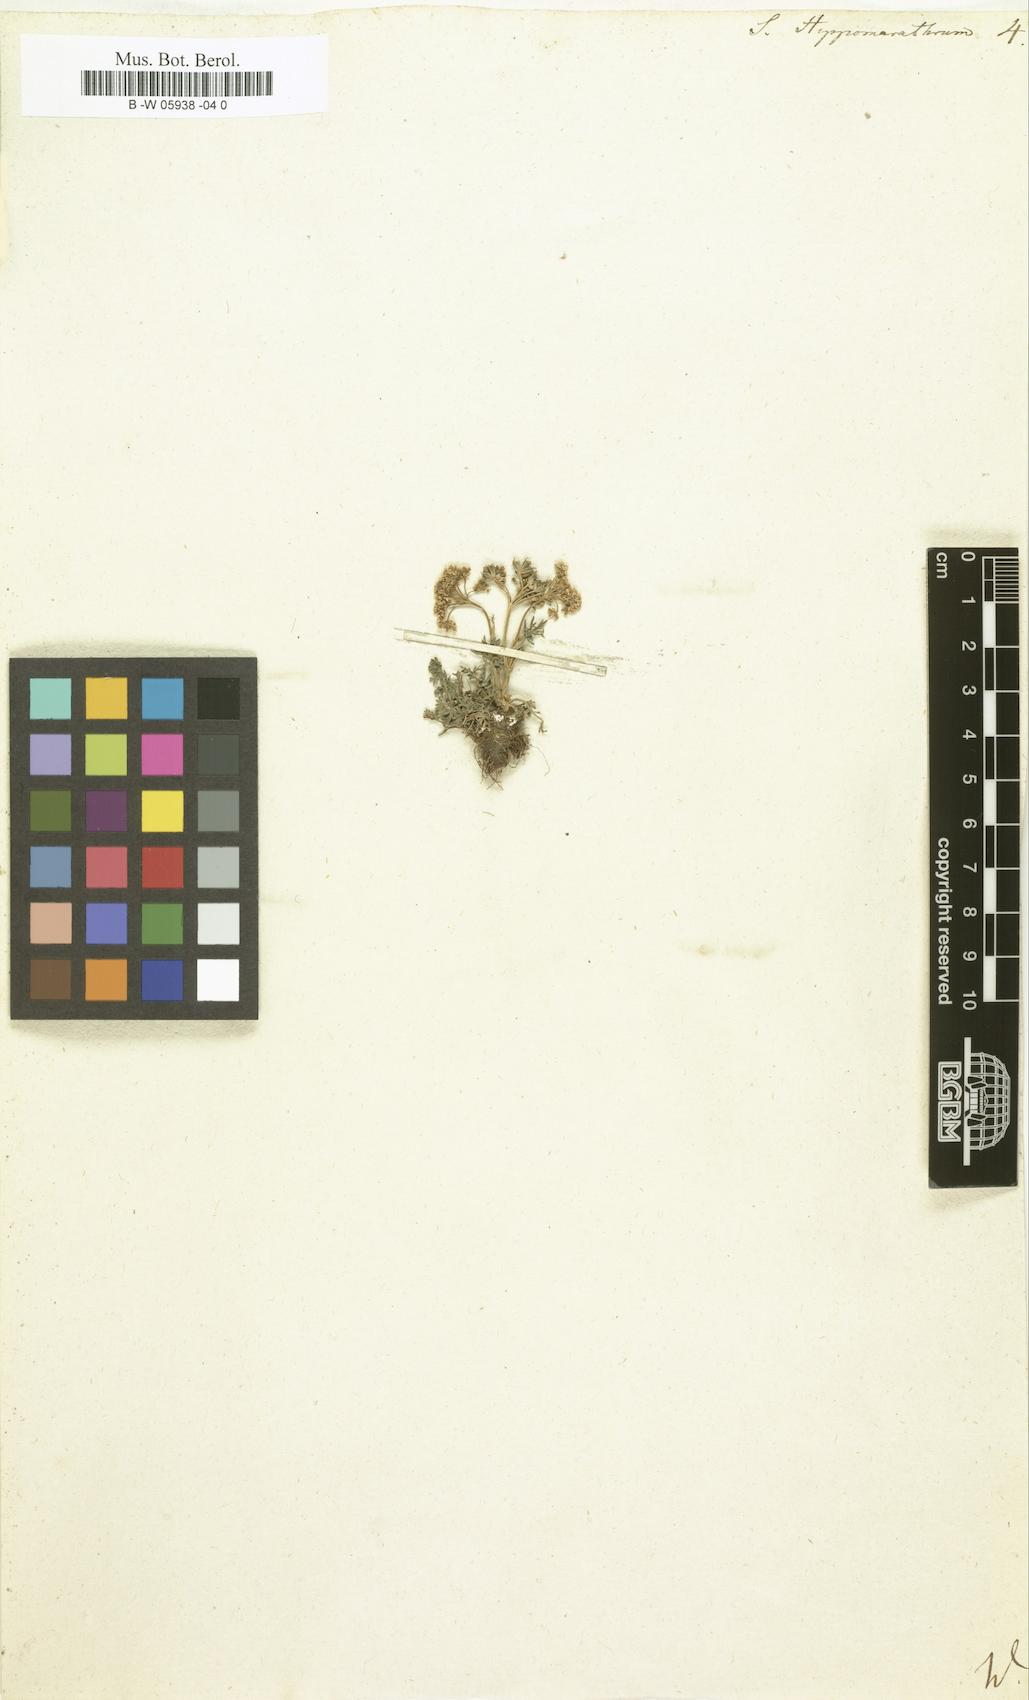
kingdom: Plantae
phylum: Tracheophyta
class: Magnoliopsida
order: Apiales
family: Apiaceae
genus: Hippomarathrum
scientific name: Hippomarathrum vulgare
